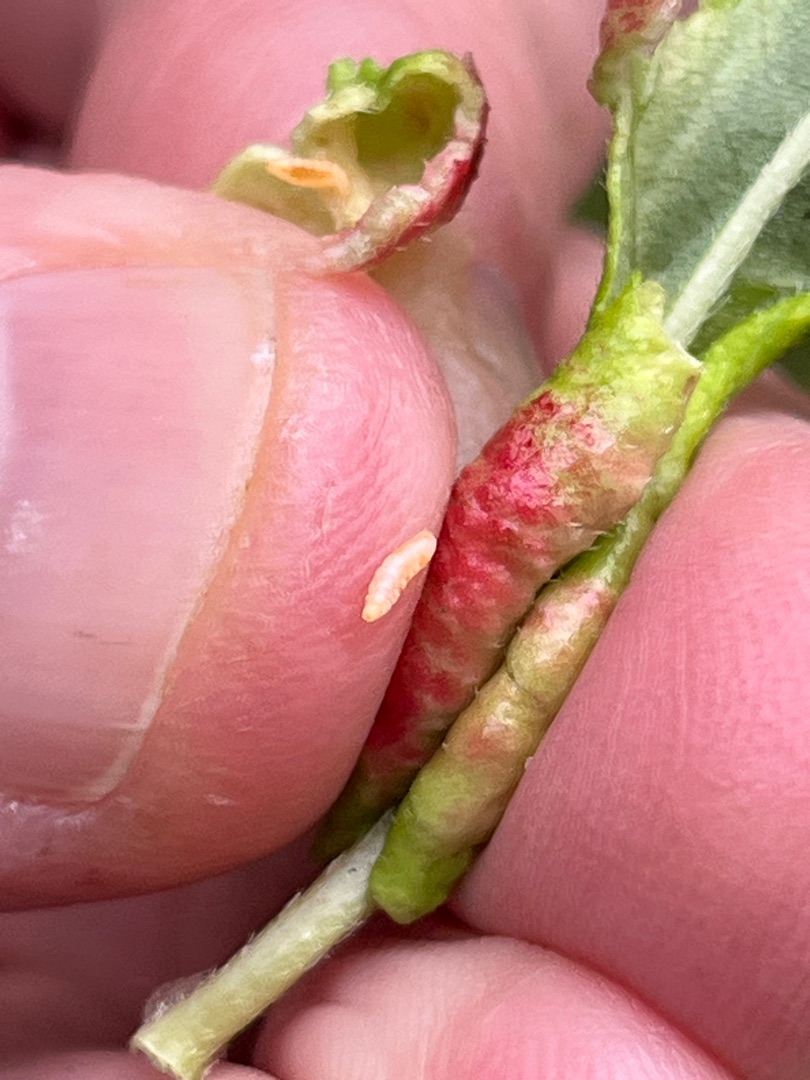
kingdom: Animalia
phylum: Arthropoda
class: Insecta
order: Diptera
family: Cecidomyiidae
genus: Wachtliella
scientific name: Wachtliella persicariae
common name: Pileurtgalmyg
